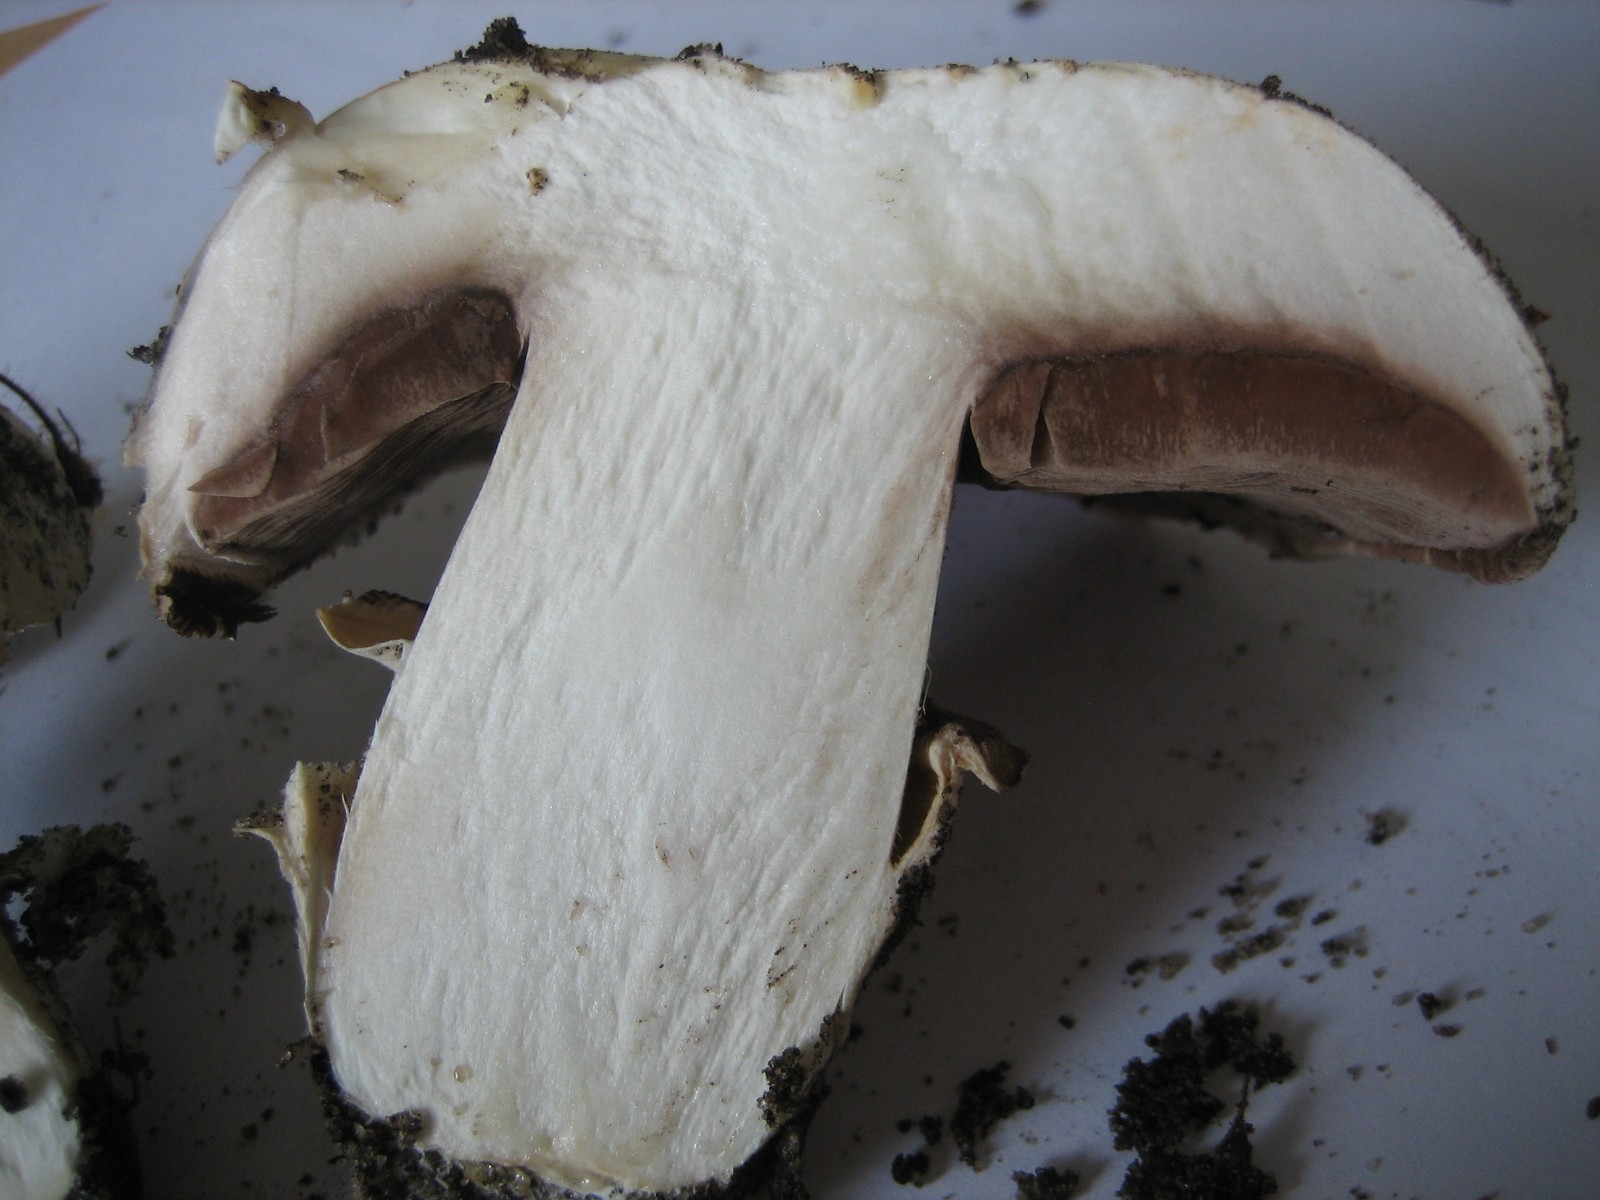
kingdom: Fungi
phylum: Basidiomycota
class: Agaricomycetes
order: Agaricales
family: Agaricaceae
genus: Agaricus
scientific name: Agaricus bitorquis
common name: vej-champignon
